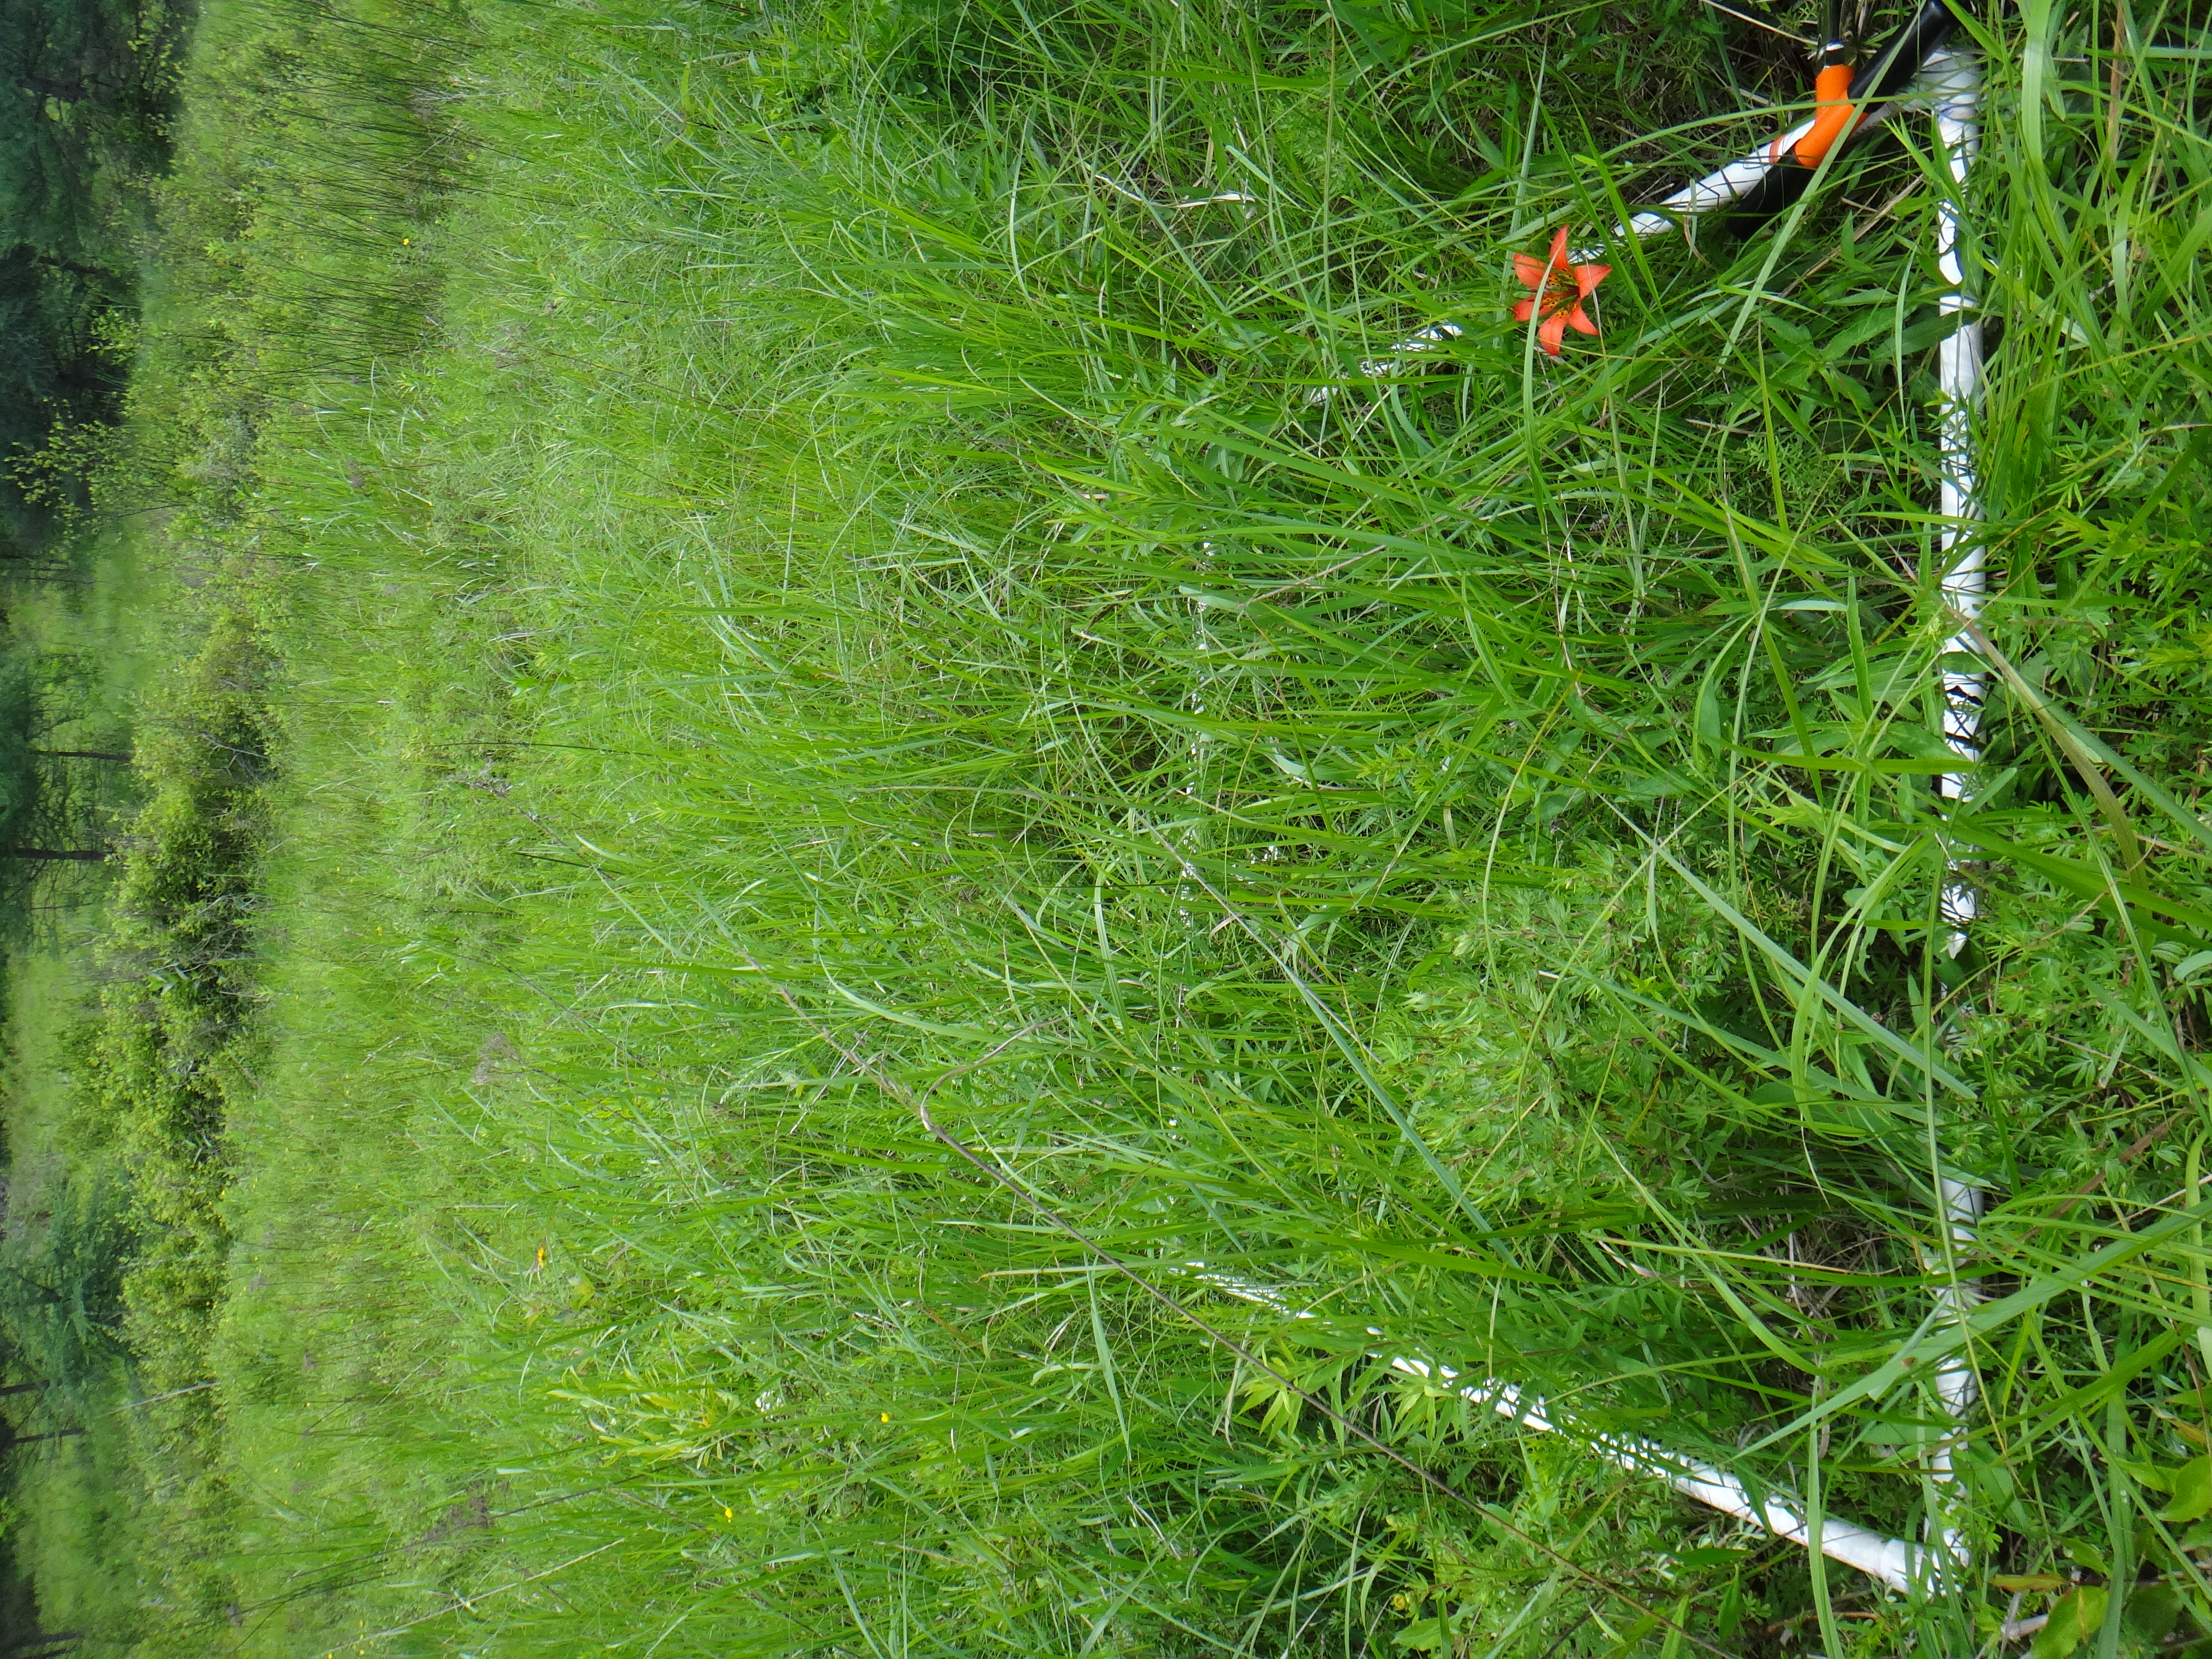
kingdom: Plantae
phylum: Tracheophyta
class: Magnoliopsida
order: Ericales
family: Primulaceae
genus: Lysimachia
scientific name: Lysimachia quadriflora
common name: Four-flowered loosestrife
